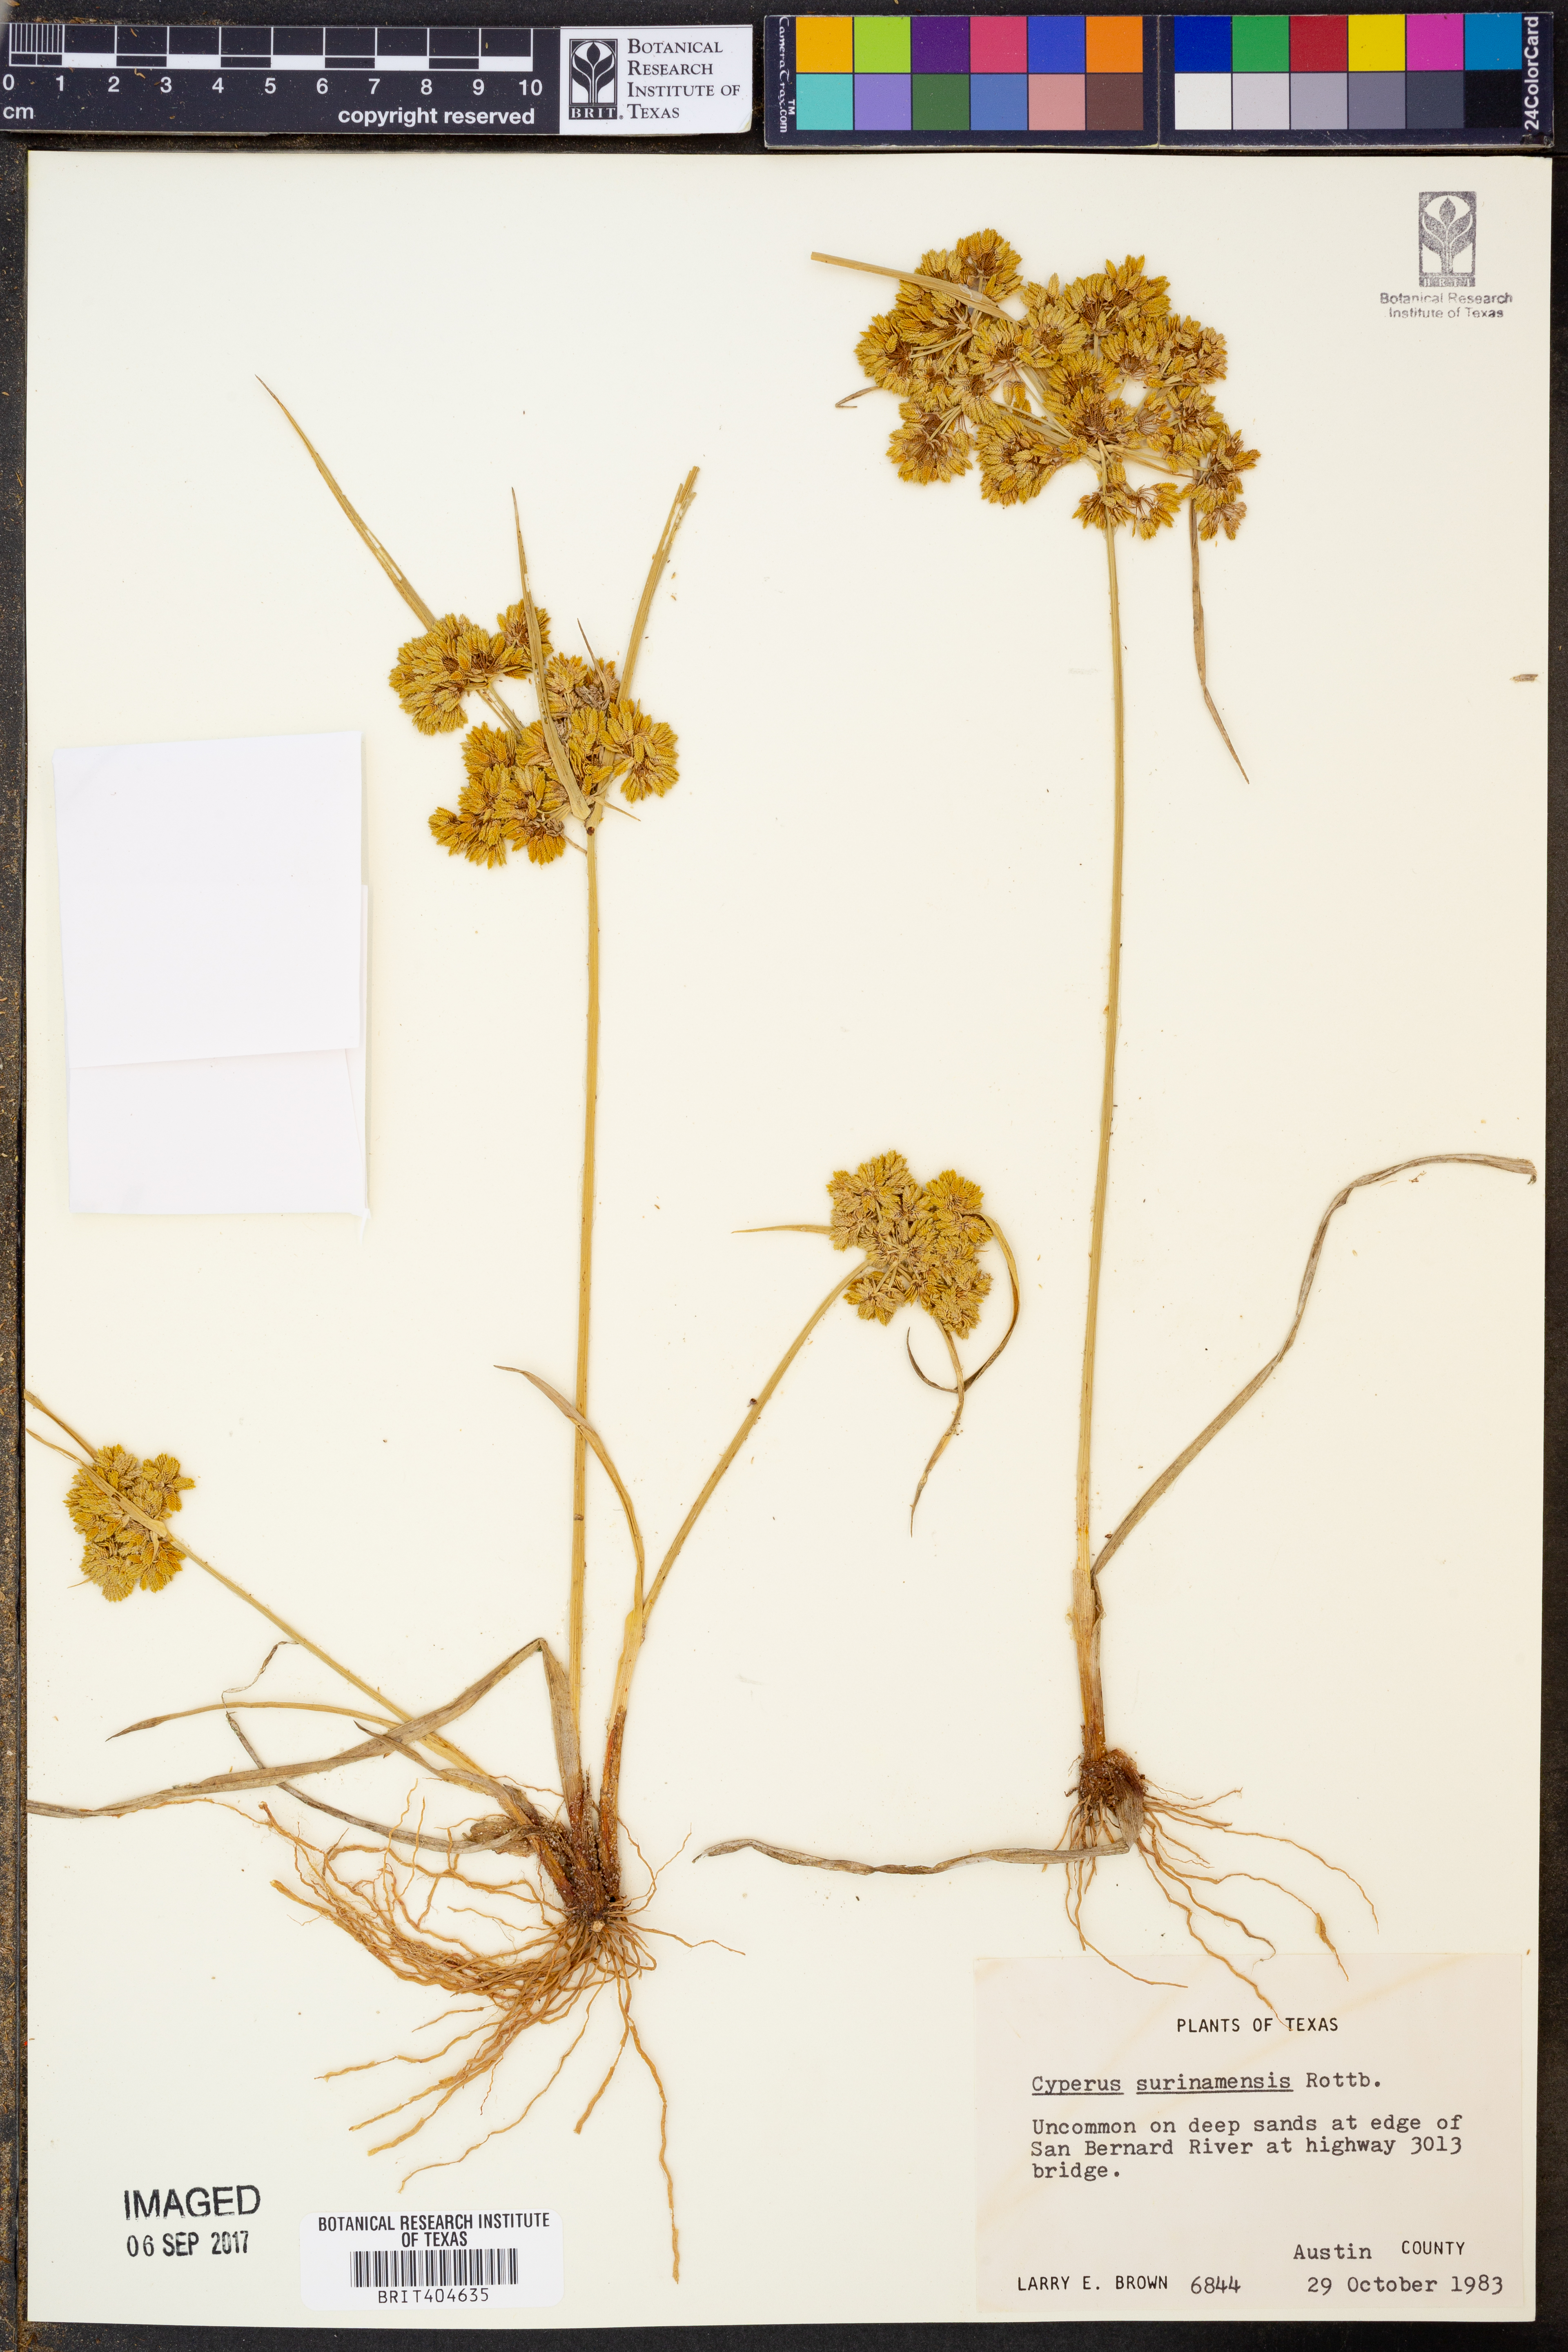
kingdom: Plantae
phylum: Tracheophyta
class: Liliopsida
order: Poales
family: Cyperaceae
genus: Cyperus
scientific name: Cyperus surinamensis
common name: Tropical flat sedge
